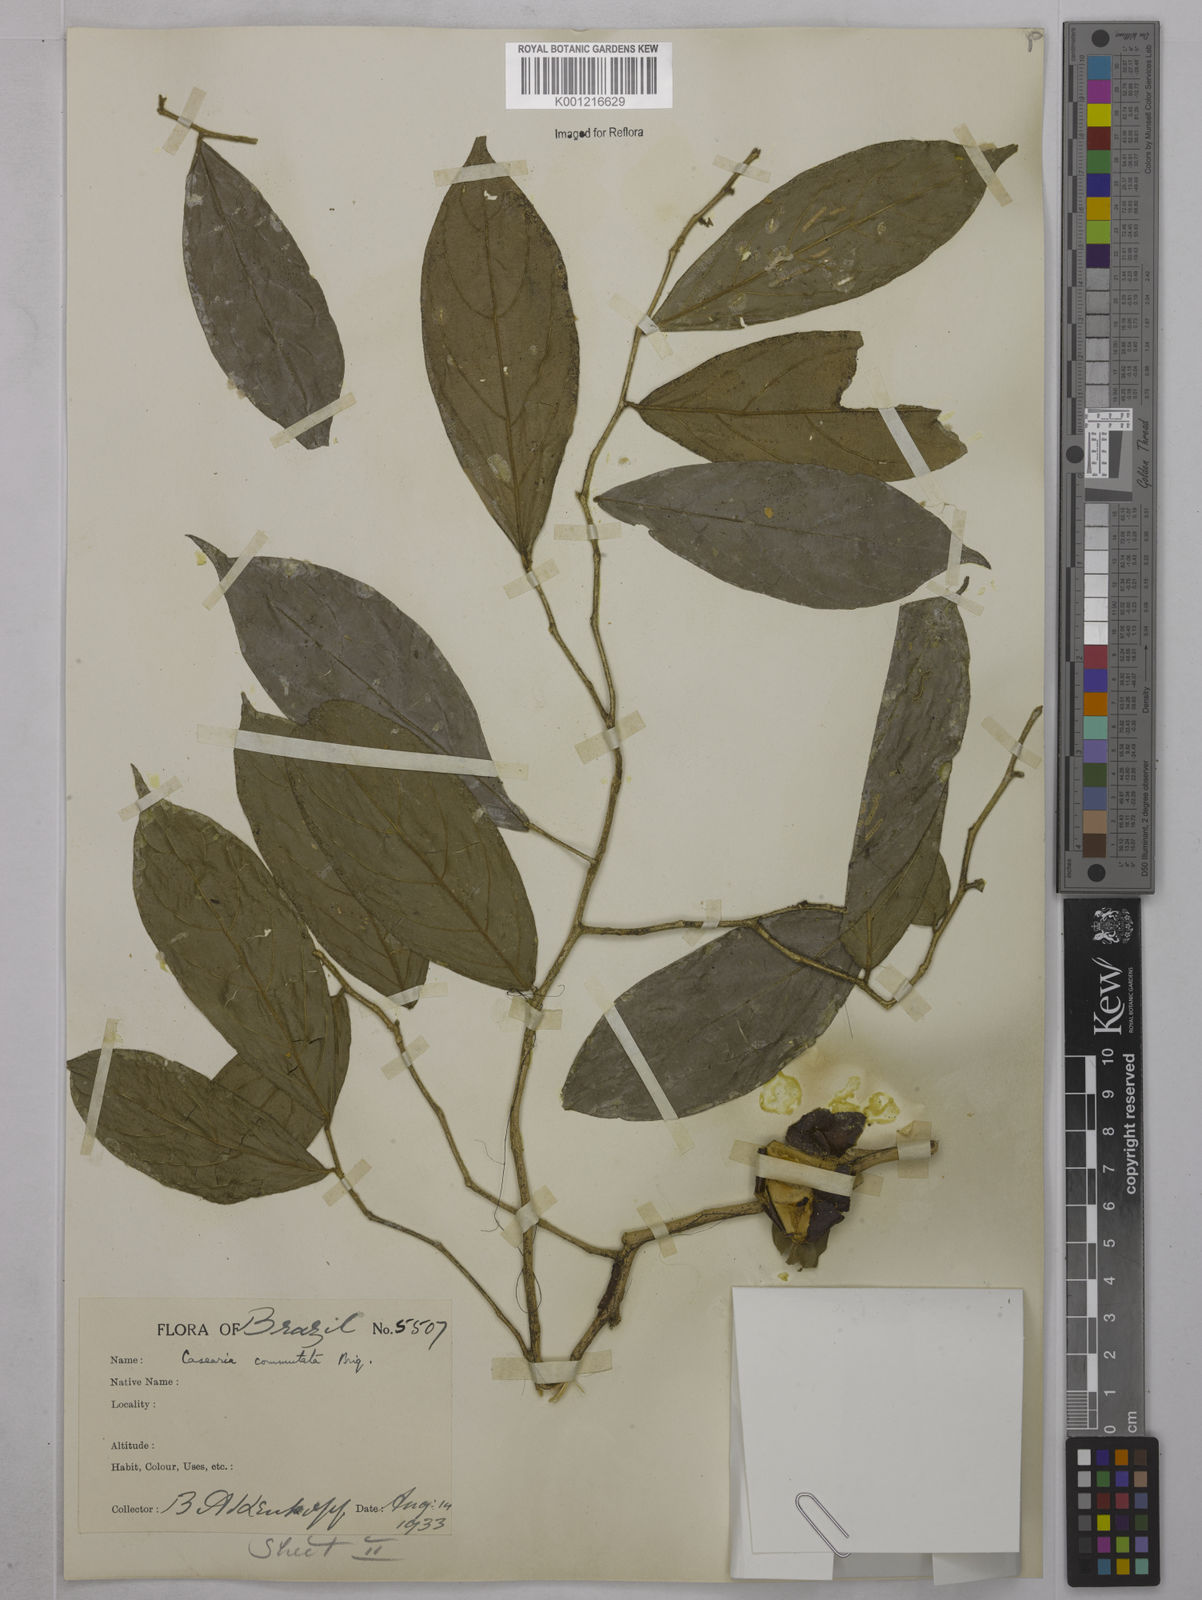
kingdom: Plantae
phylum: Tracheophyta
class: Magnoliopsida
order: Malpighiales
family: Salicaceae
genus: Casearia
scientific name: Casearia obovalis
